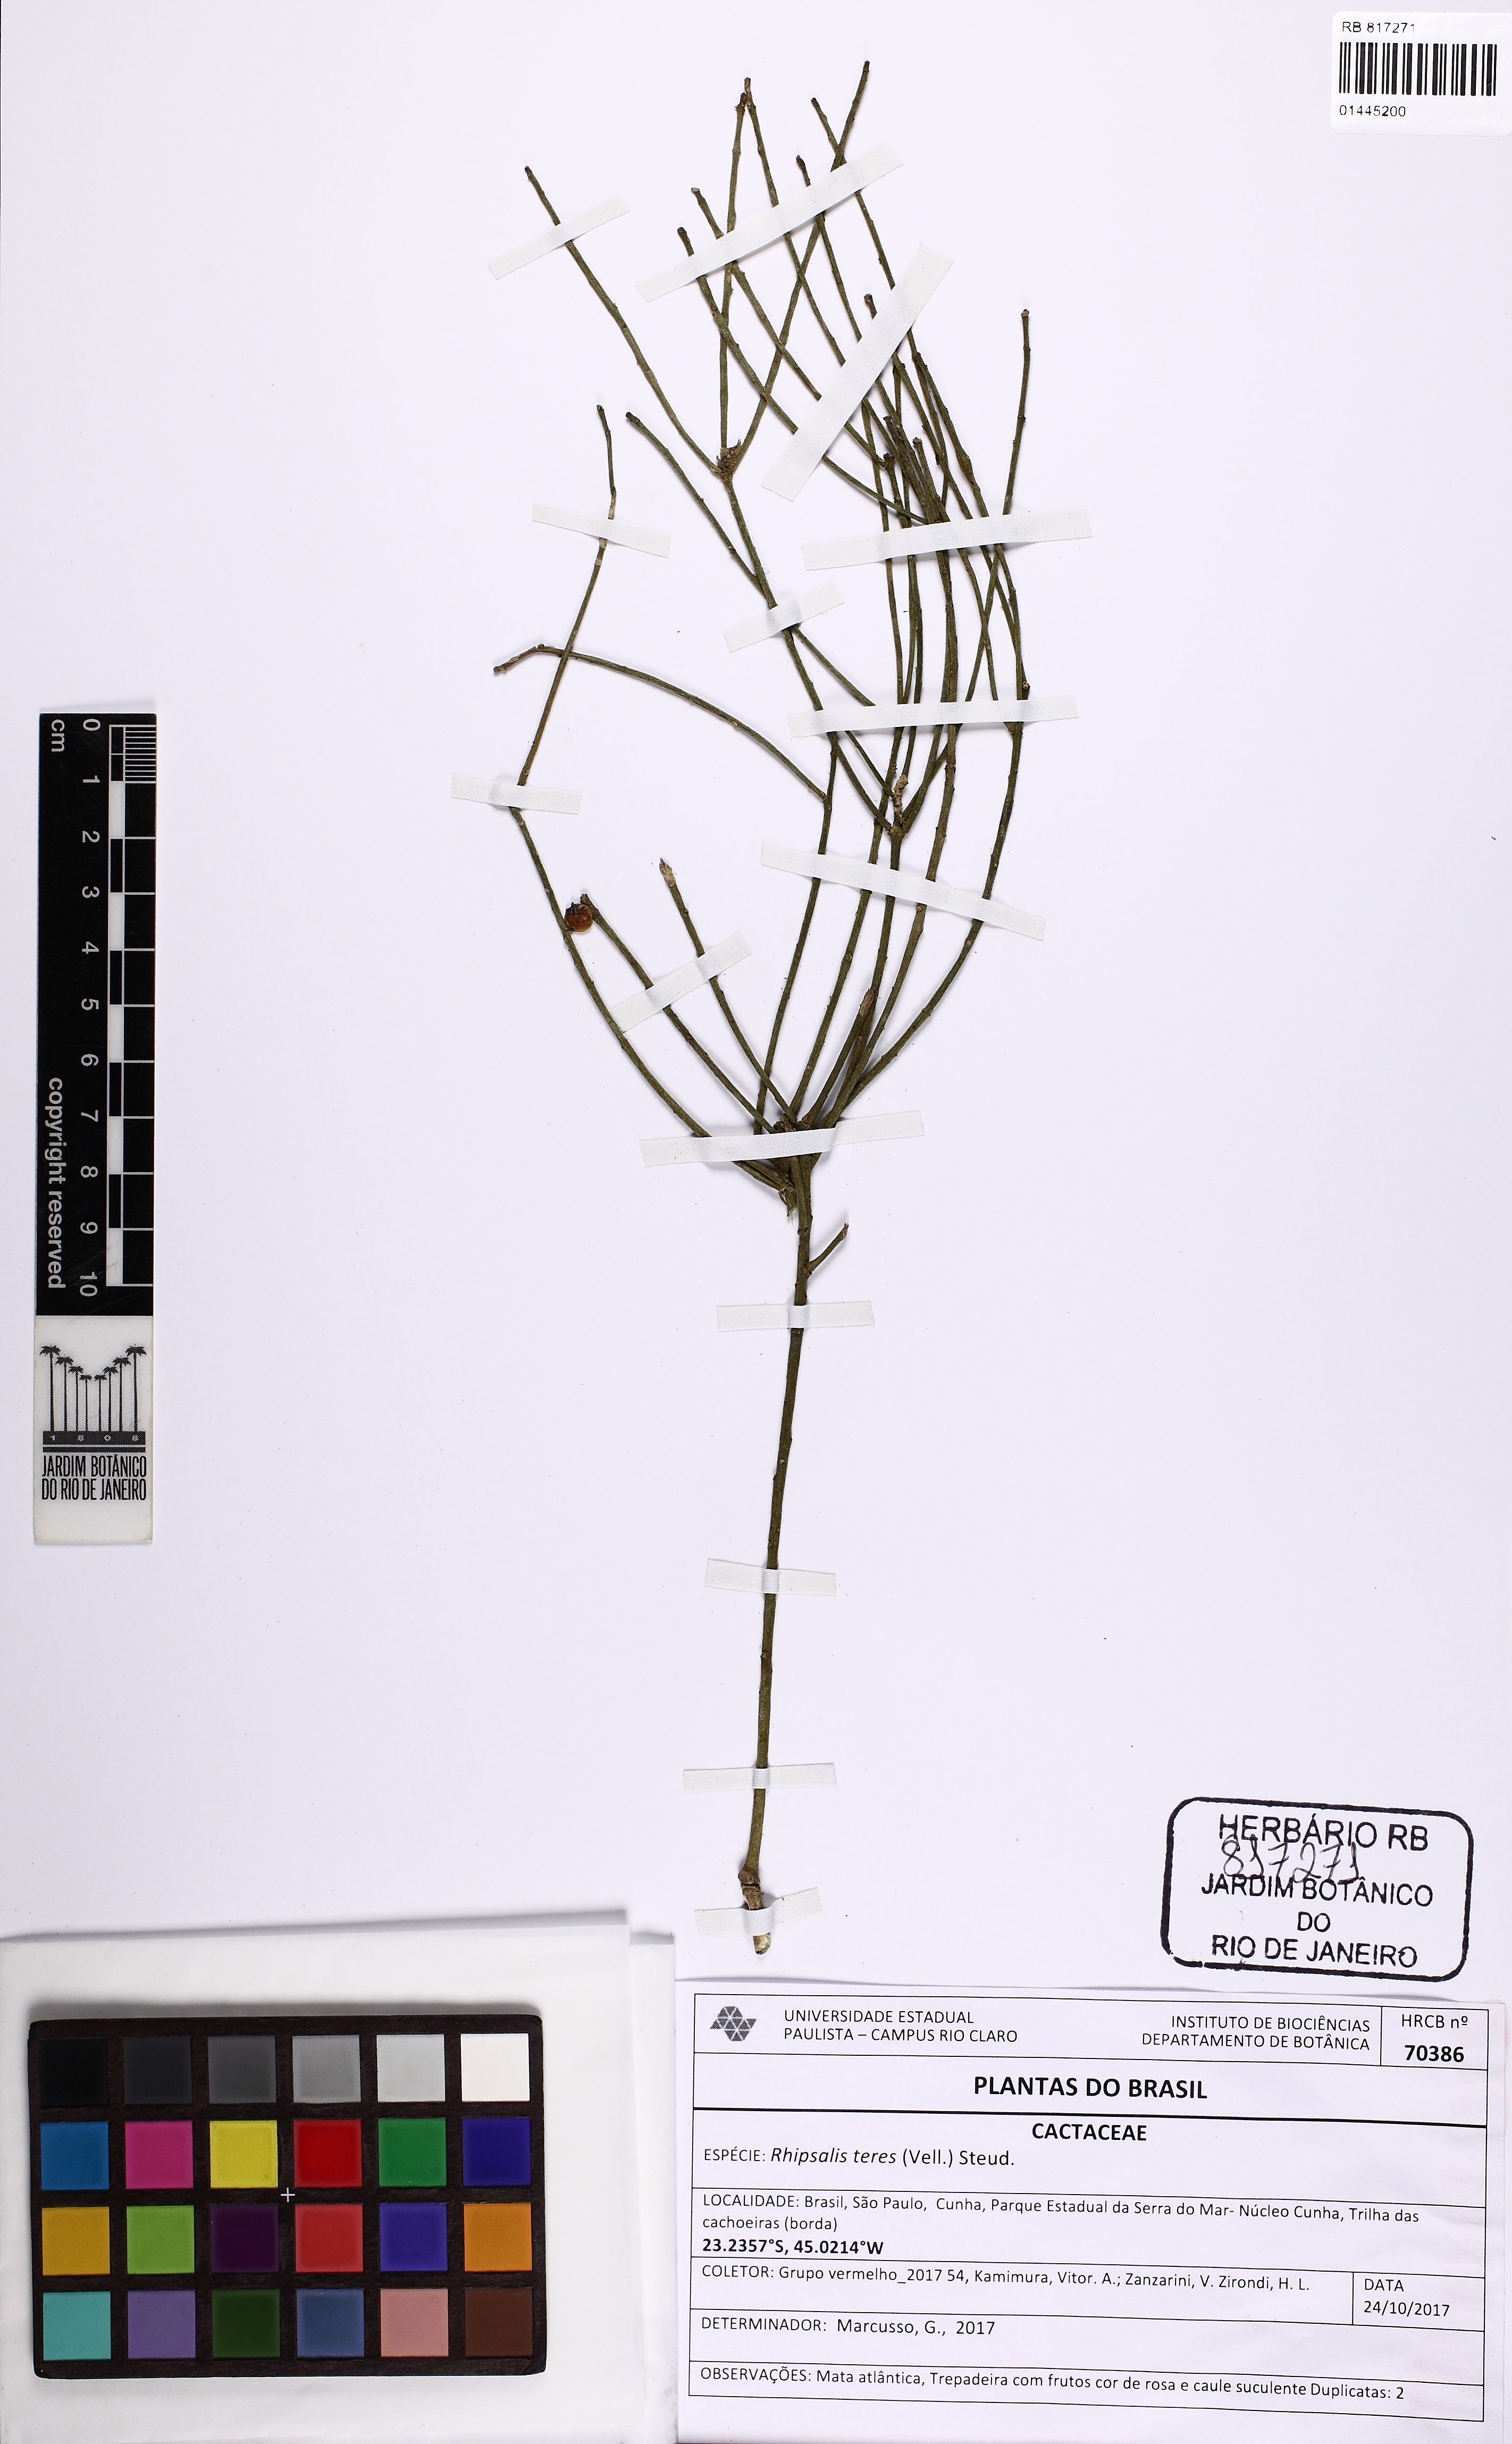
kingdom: Plantae
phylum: Tracheophyta
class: Magnoliopsida
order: Caryophyllales
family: Cactaceae
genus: Rhipsalis
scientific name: Rhipsalis teres
